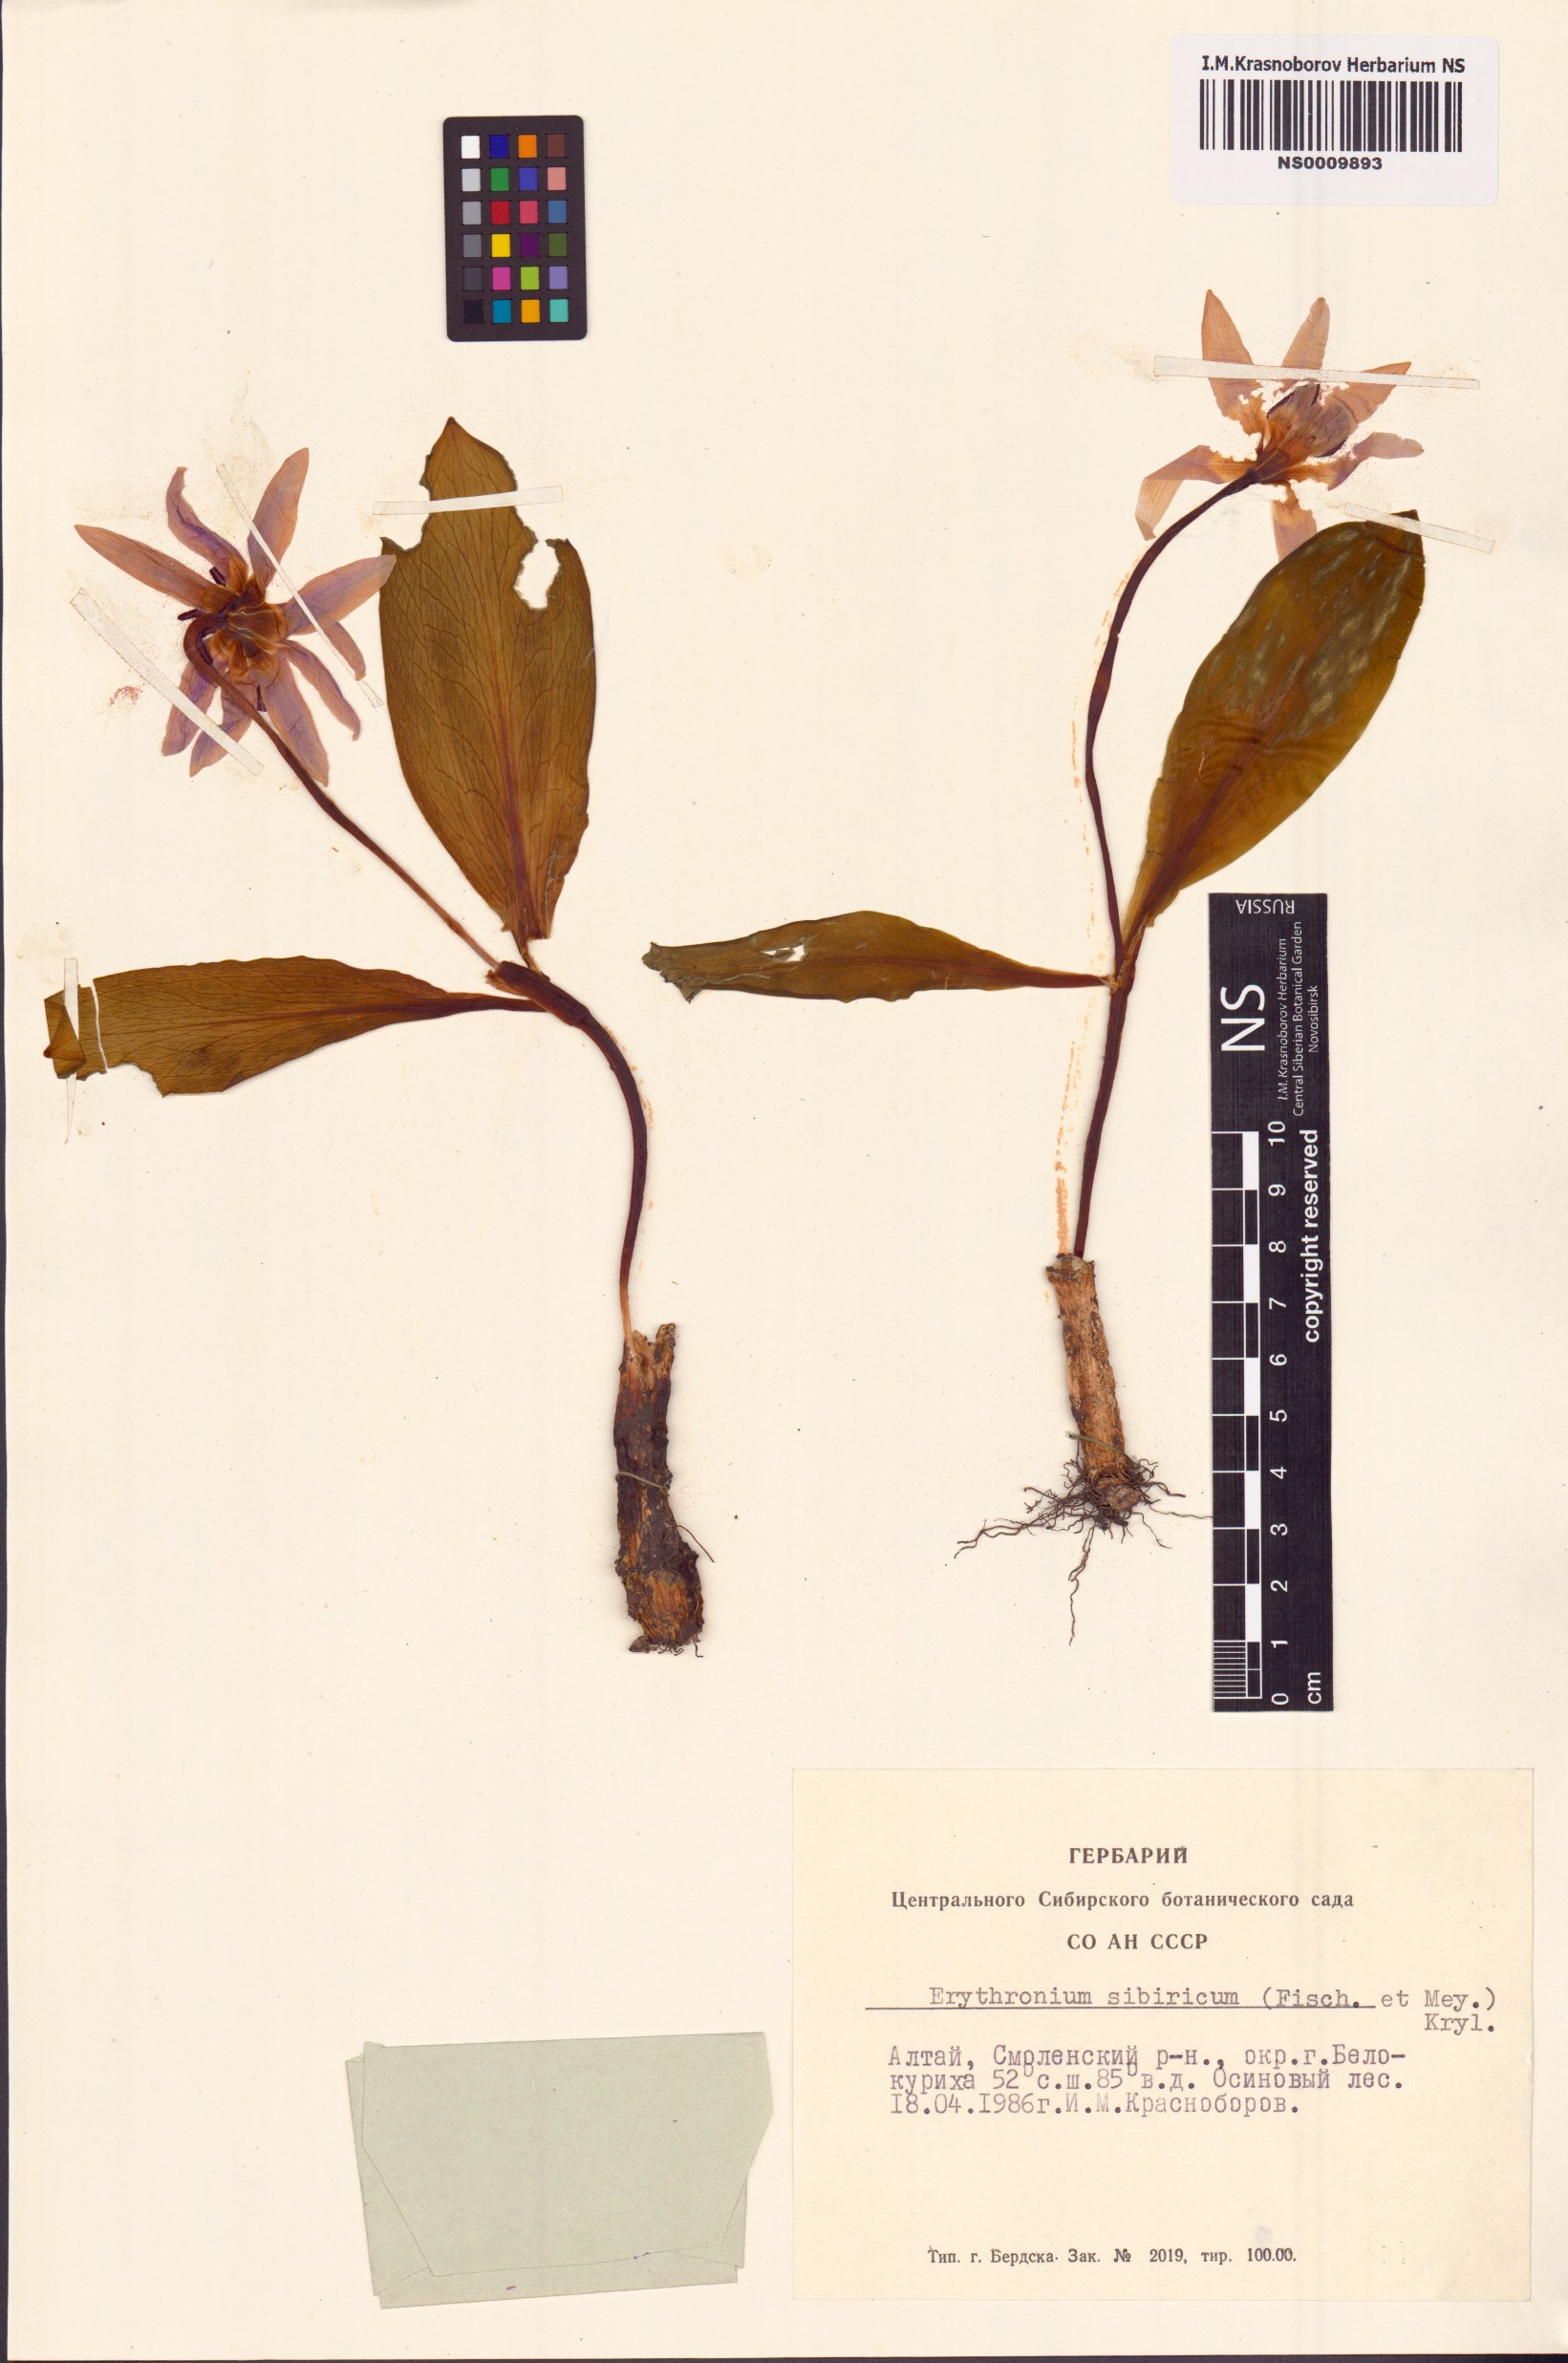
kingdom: Plantae
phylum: Tracheophyta
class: Liliopsida
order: Liliales
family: Liliaceae
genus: Erythronium
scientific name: Erythronium sibiricum
